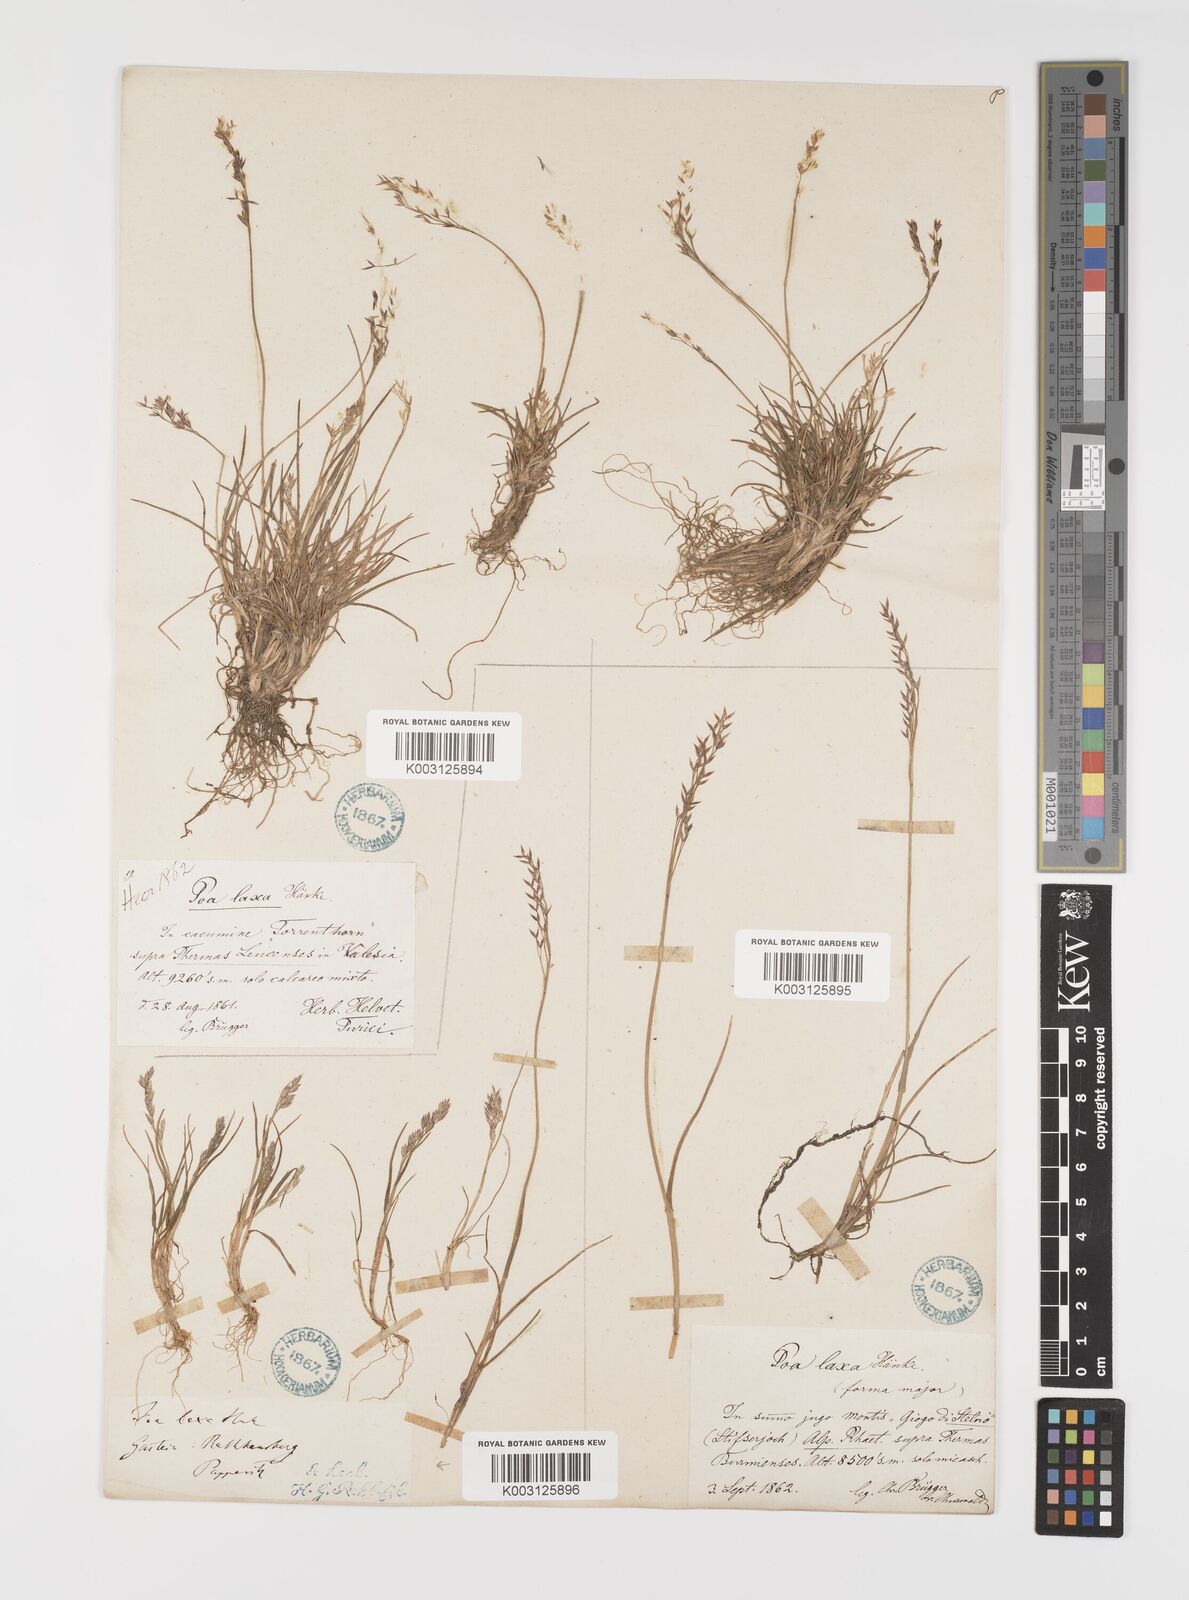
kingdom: Plantae
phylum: Tracheophyta
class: Liliopsida
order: Poales
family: Poaceae
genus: Poa
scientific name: Poa laxa
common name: Lax bluegrass
